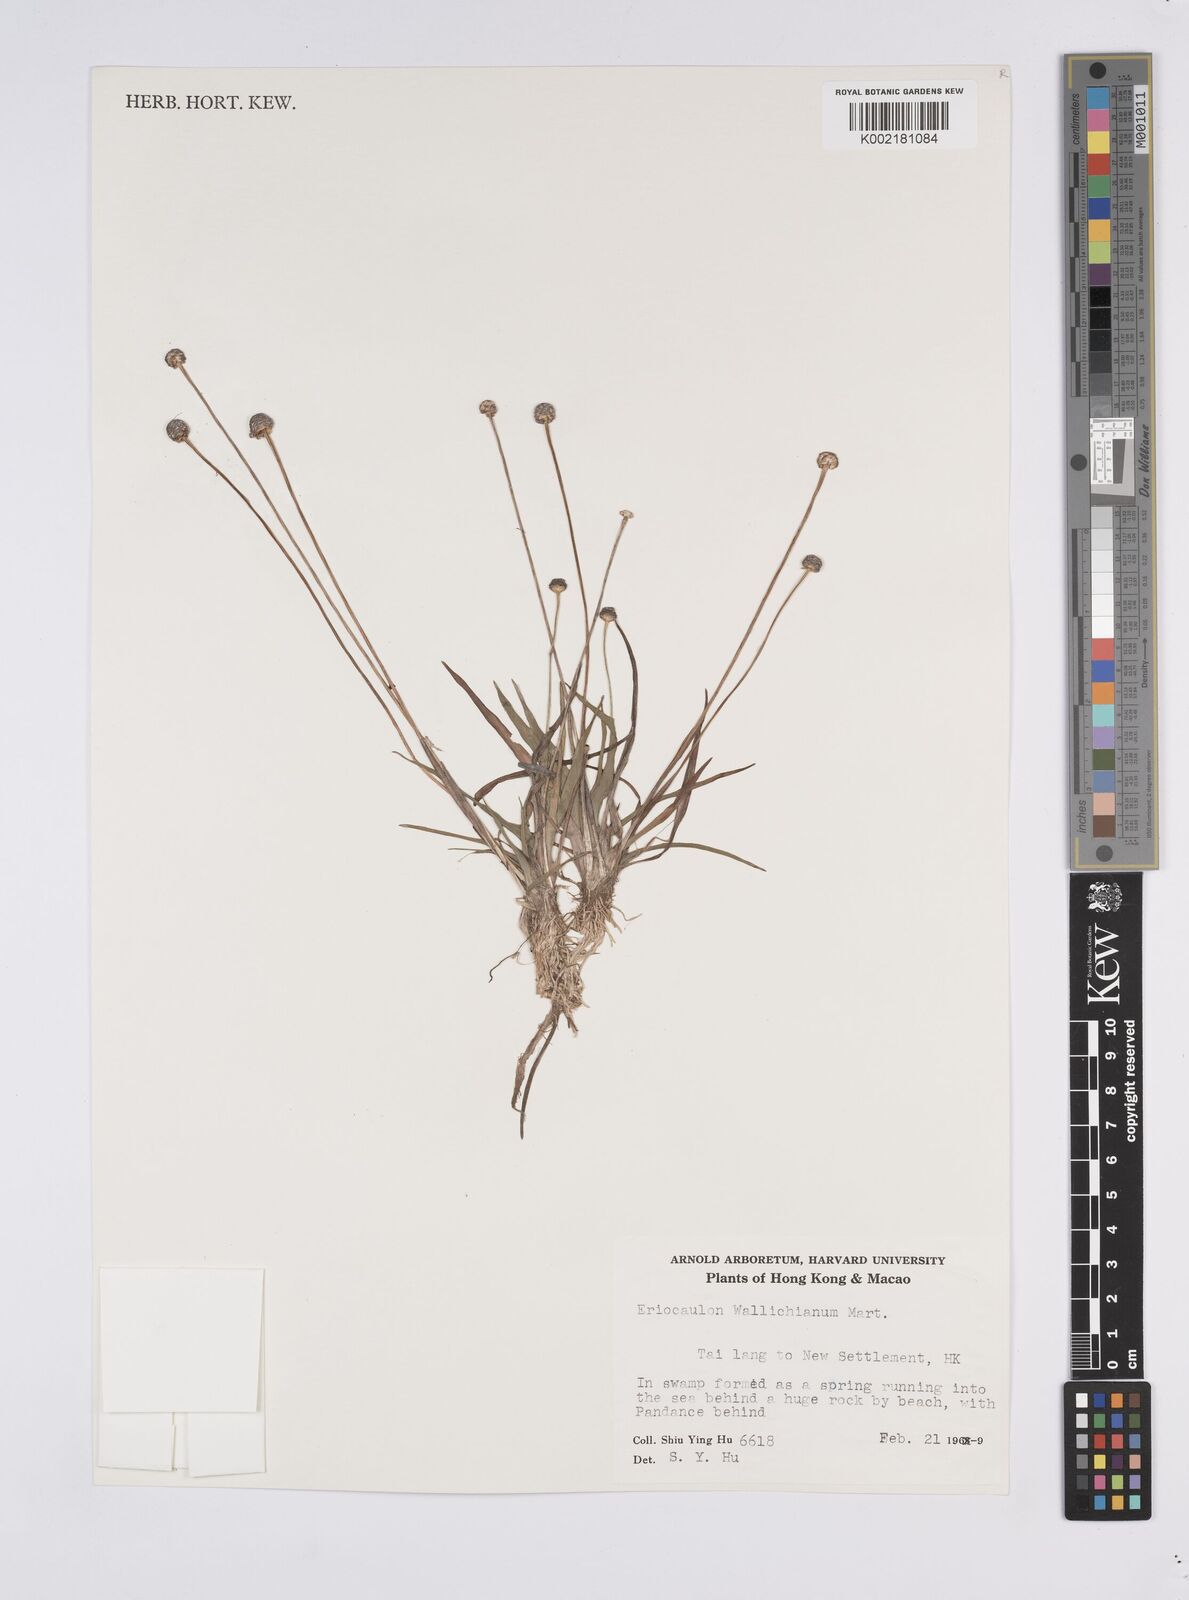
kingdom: Plantae
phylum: Tracheophyta
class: Liliopsida
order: Poales
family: Eriocaulaceae
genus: Eriocaulon
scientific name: Eriocaulon sexangulare
